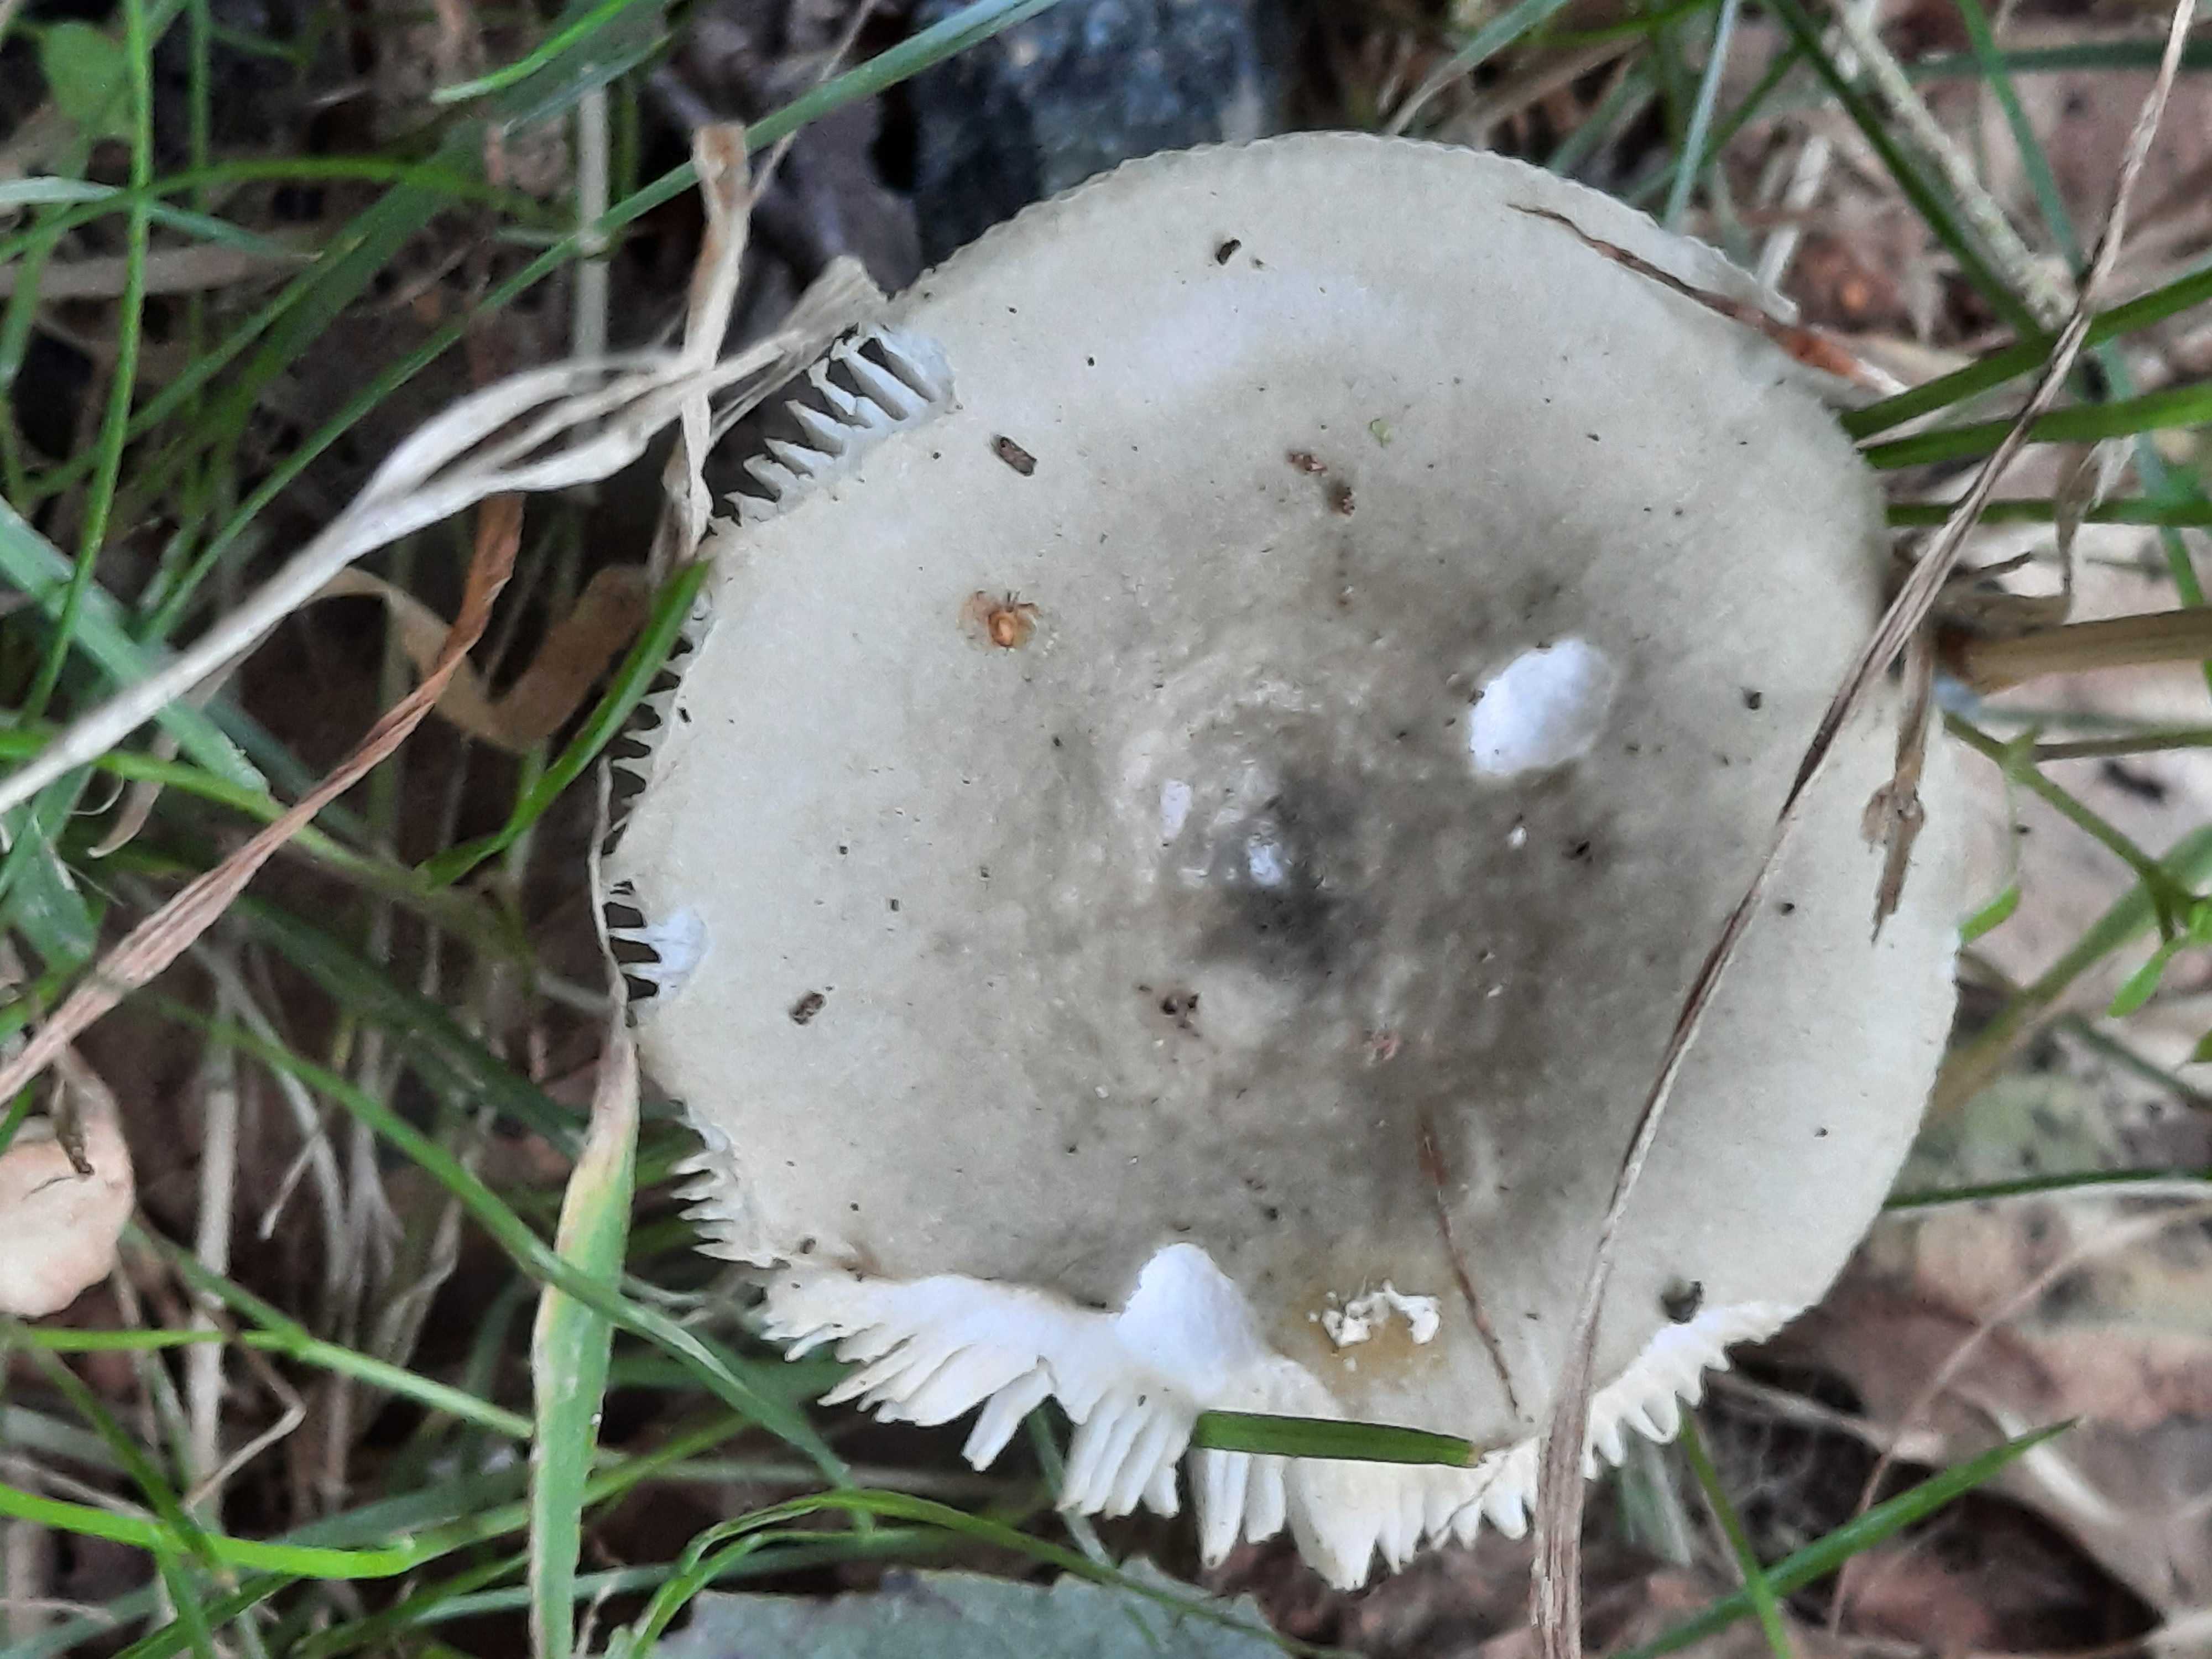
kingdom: Fungi
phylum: Basidiomycota
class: Agaricomycetes
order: Russulales
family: Russulaceae
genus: Russula
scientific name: Russula aeruginea
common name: græsgrøn skørhat
